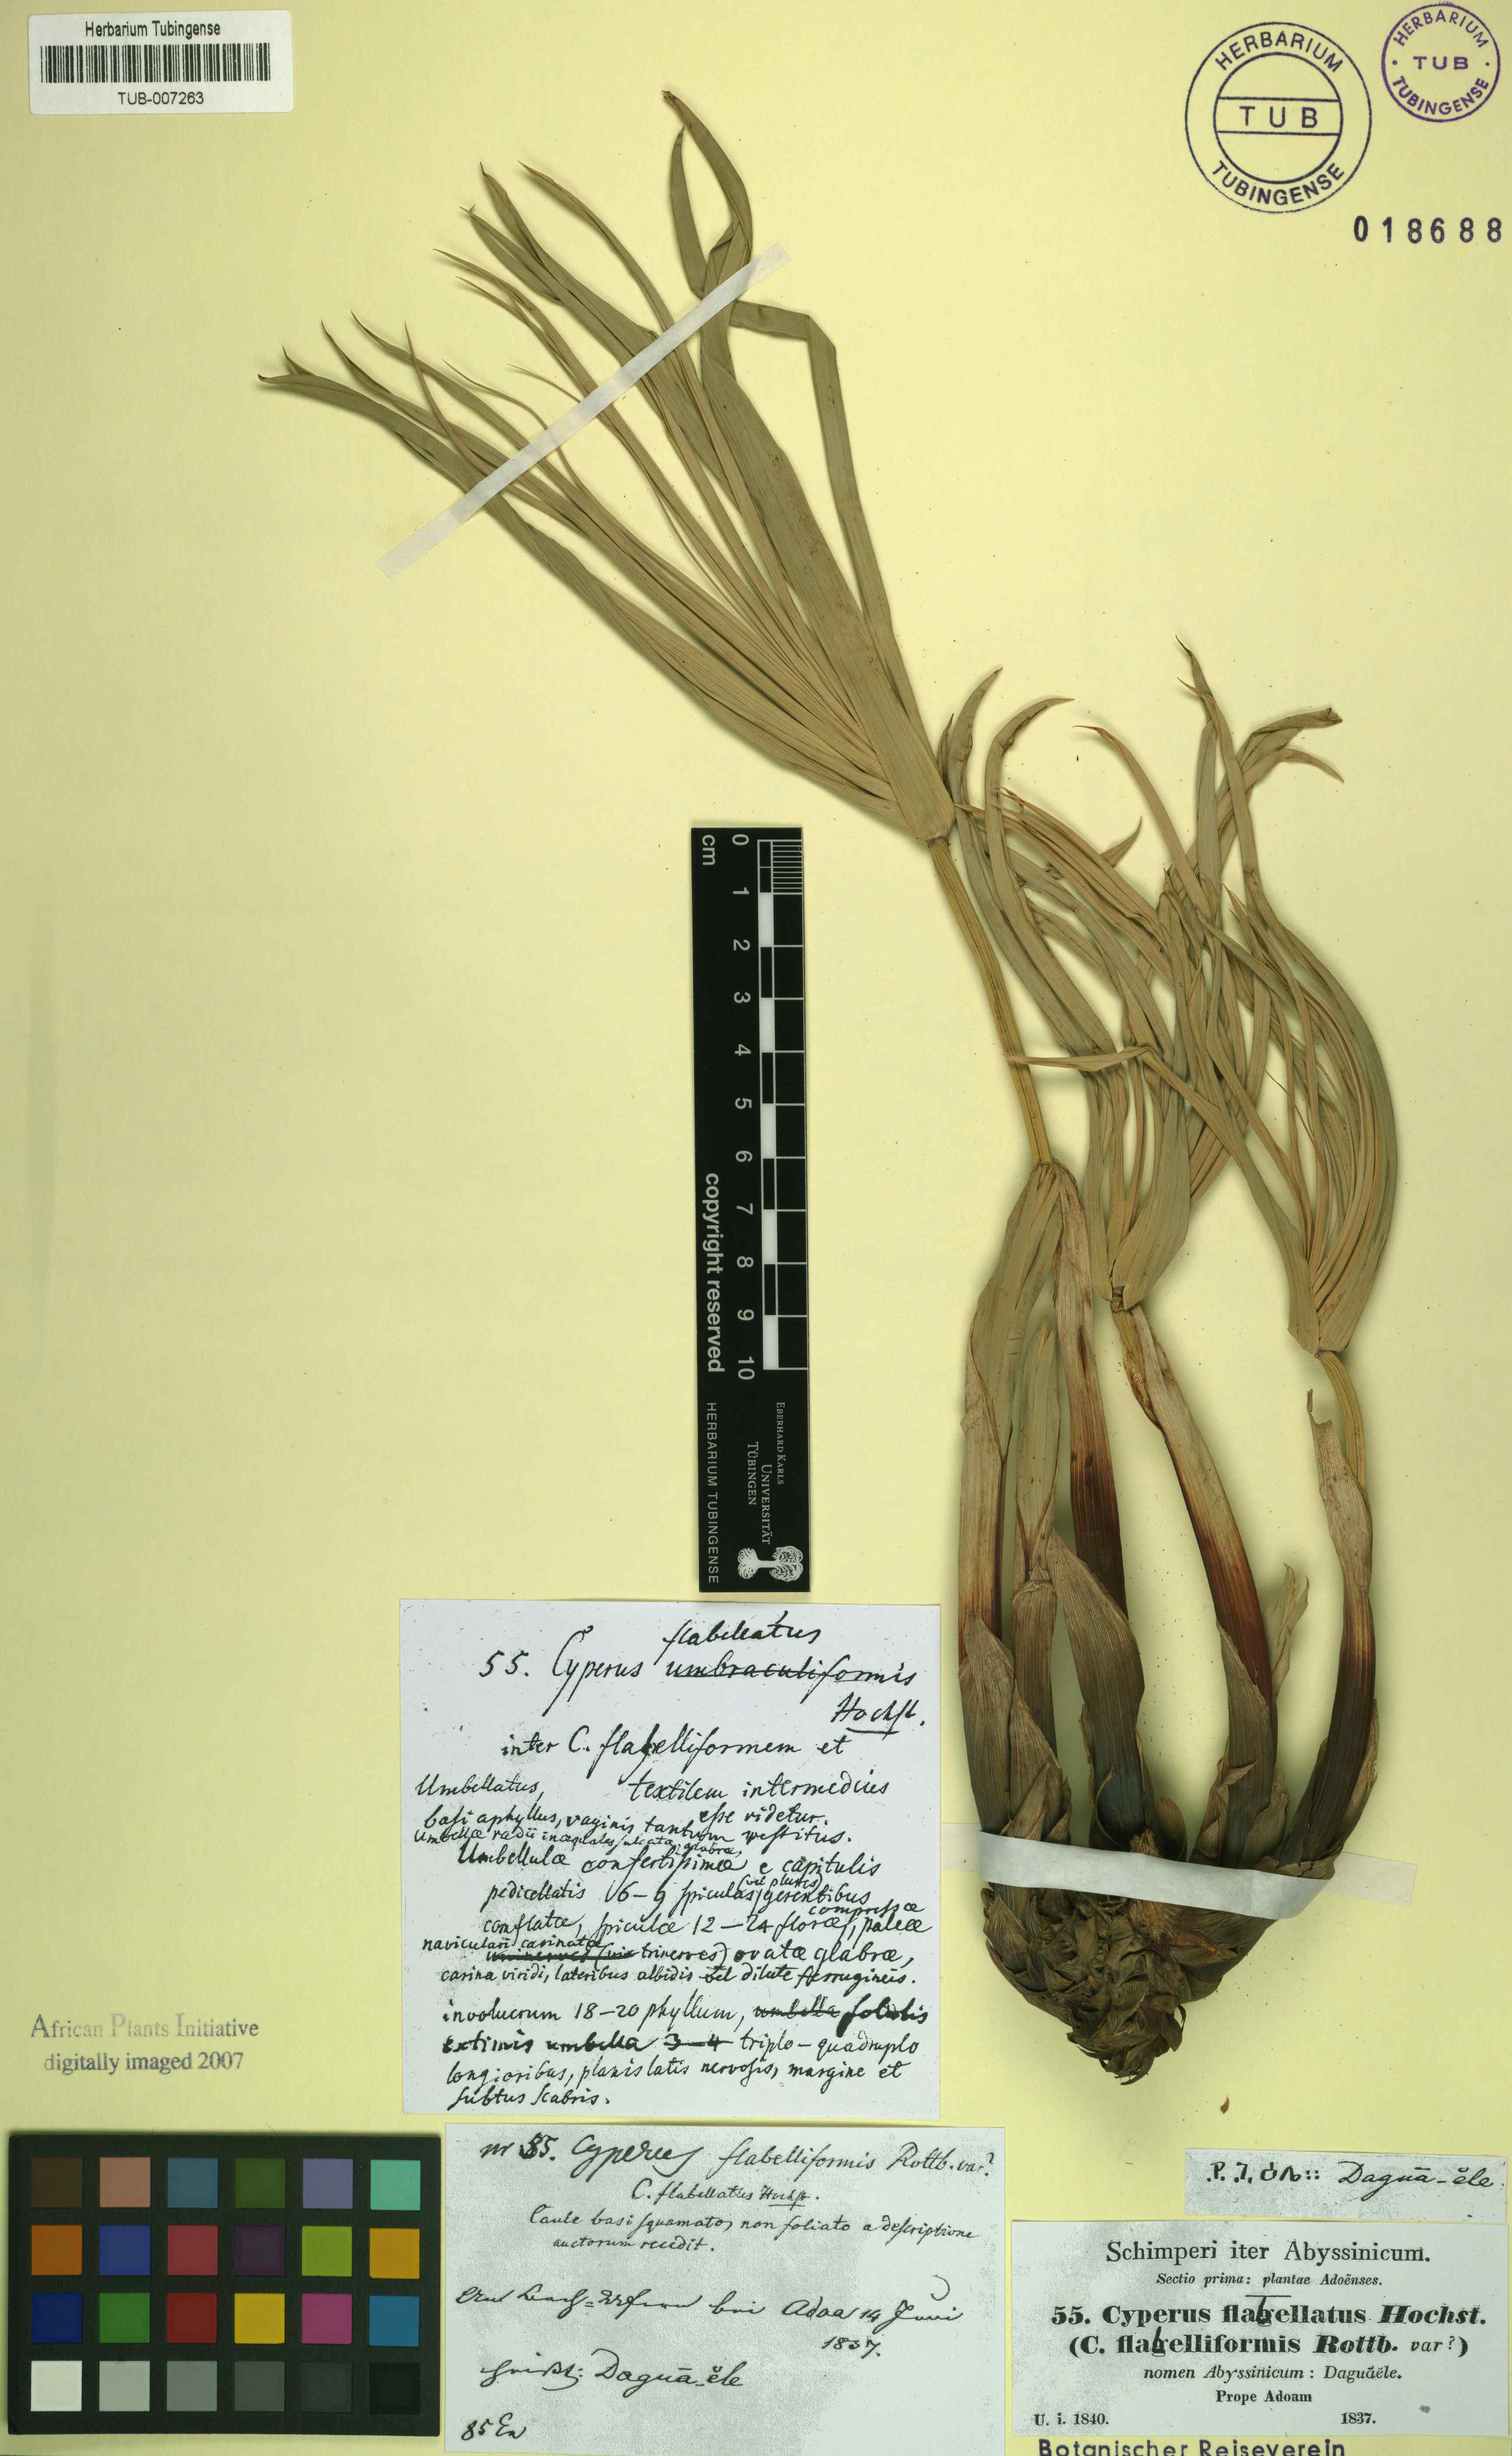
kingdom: Plantae
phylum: Tracheophyta
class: Liliopsida
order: Poales
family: Cyperaceae
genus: Cyperus
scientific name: Cyperus alternifolius
